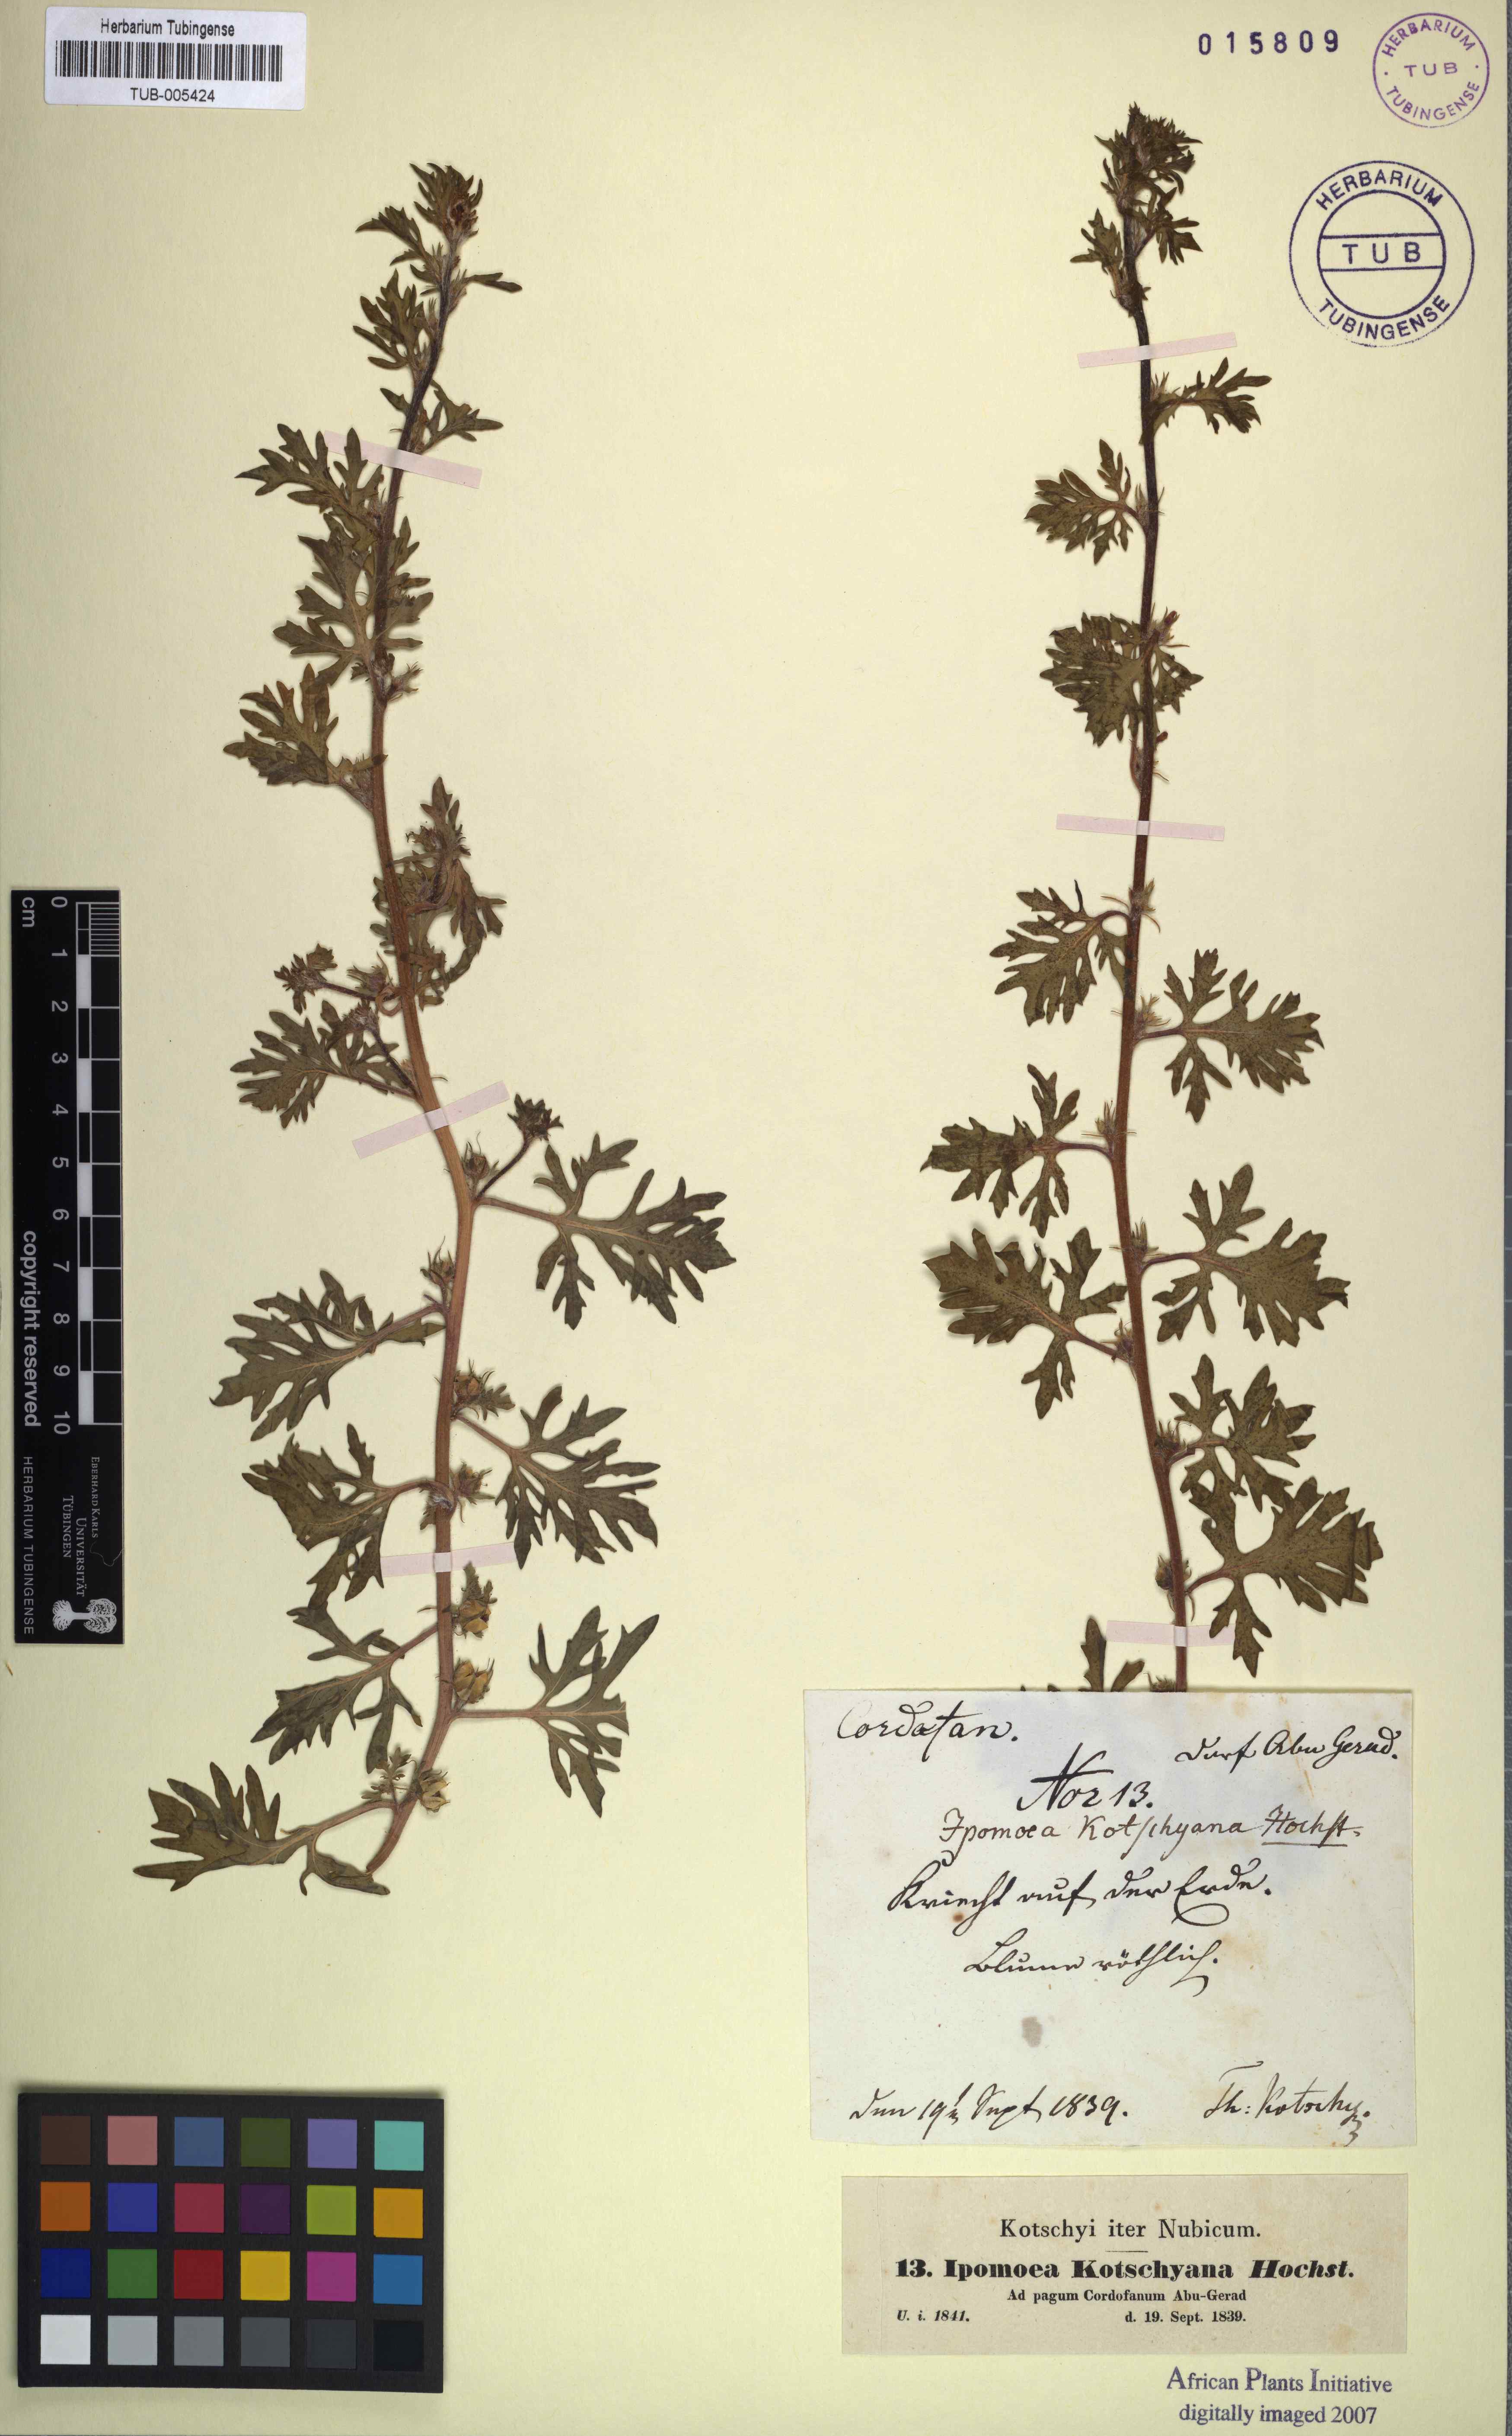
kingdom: Plantae
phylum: Tracheophyta
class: Magnoliopsida
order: Solanales
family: Convolvulaceae
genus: Ipomoea
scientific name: Ipomoea kotschyana
